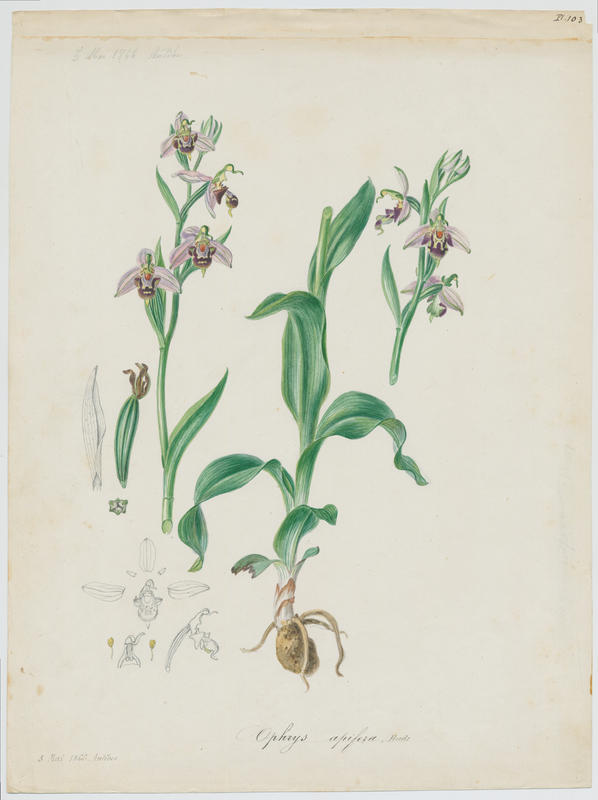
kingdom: Plantae
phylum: Tracheophyta
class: Liliopsida
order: Asparagales
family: Orchidaceae
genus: Ophrys
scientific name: Ophrys apifera
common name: Bee orchid
